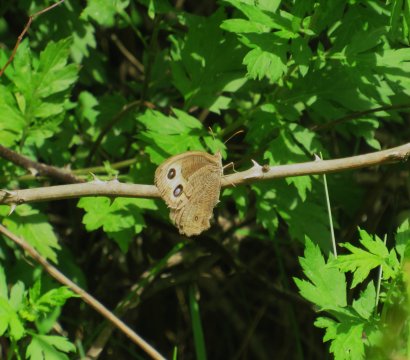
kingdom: Animalia
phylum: Arthropoda
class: Insecta
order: Lepidoptera
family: Nymphalidae
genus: Cercyonis
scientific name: Cercyonis pegala
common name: Common Wood-Nymph
